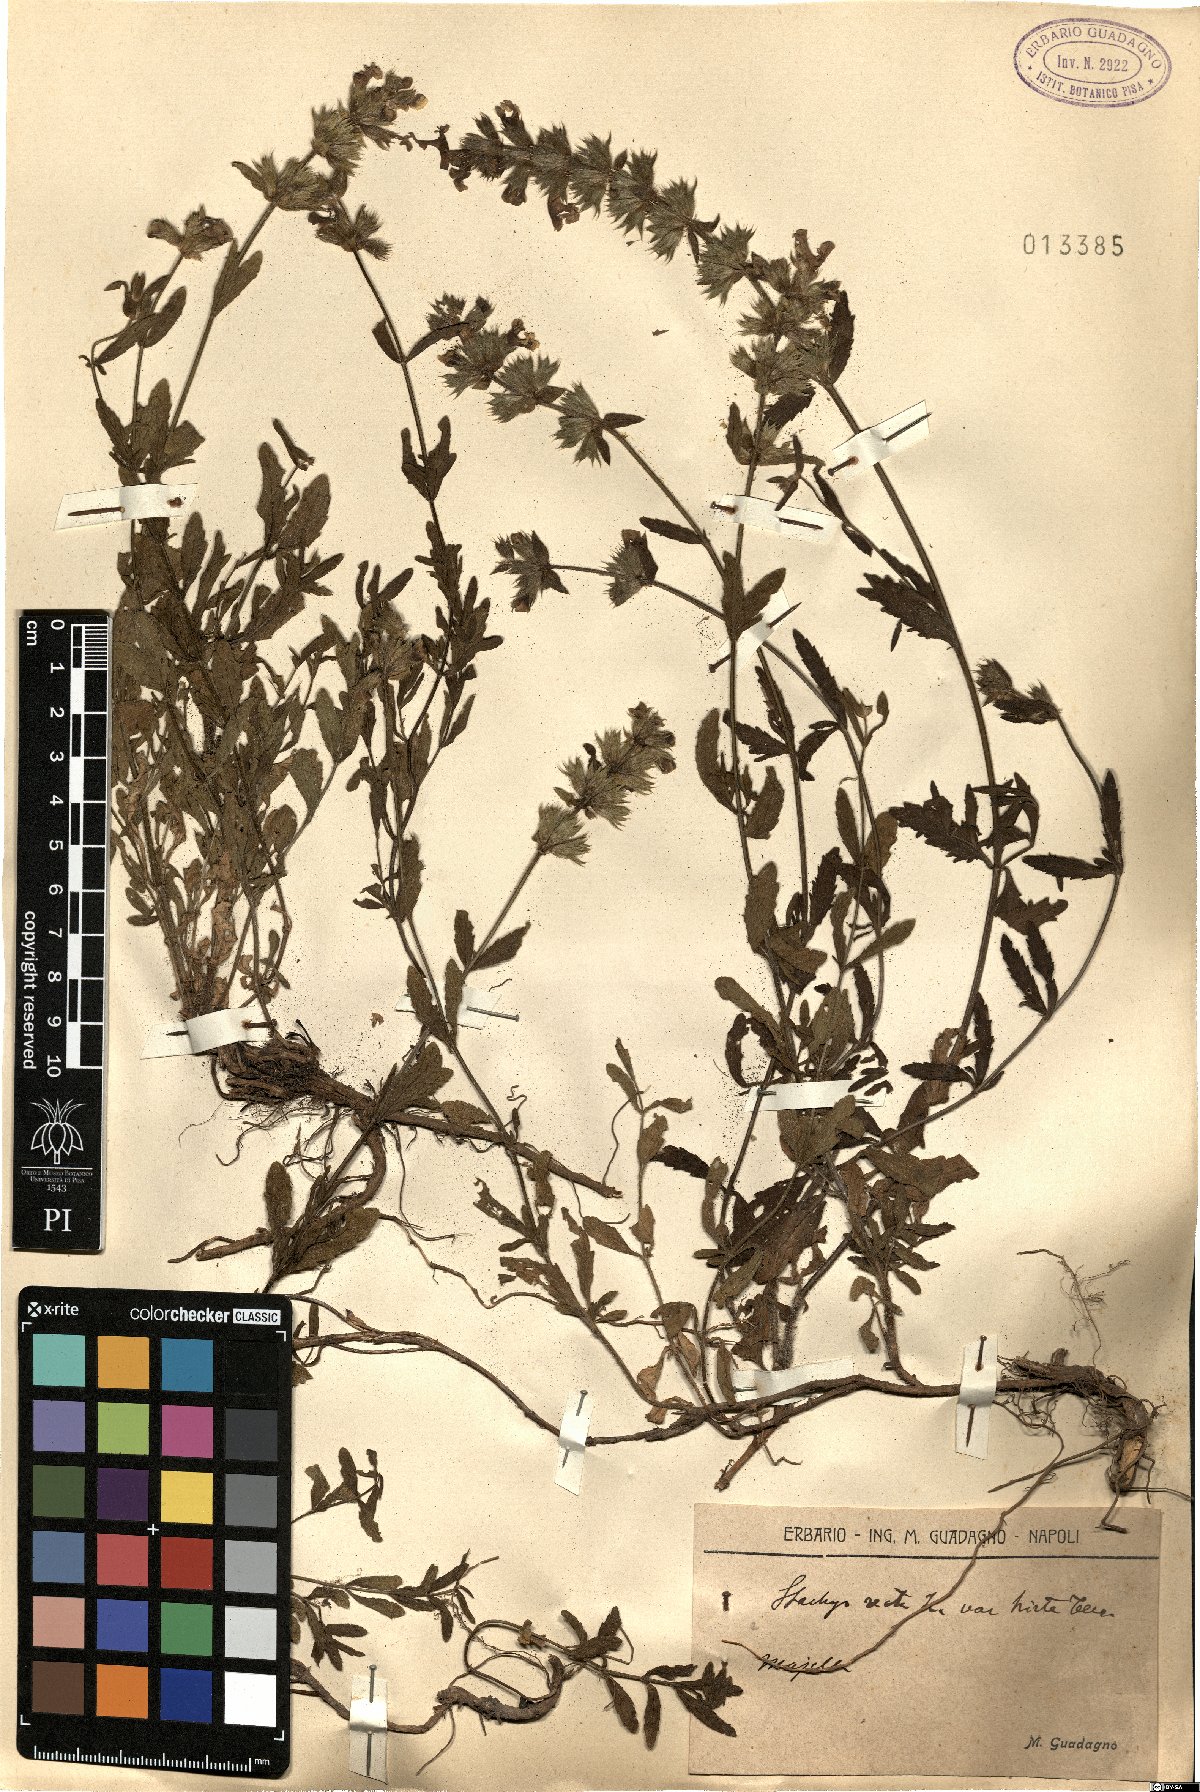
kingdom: Plantae
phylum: Tracheophyta
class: Magnoliopsida
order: Lamiales
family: Lamiaceae
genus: Stachys
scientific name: Stachys recta
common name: Perennial yellow-woundwort
